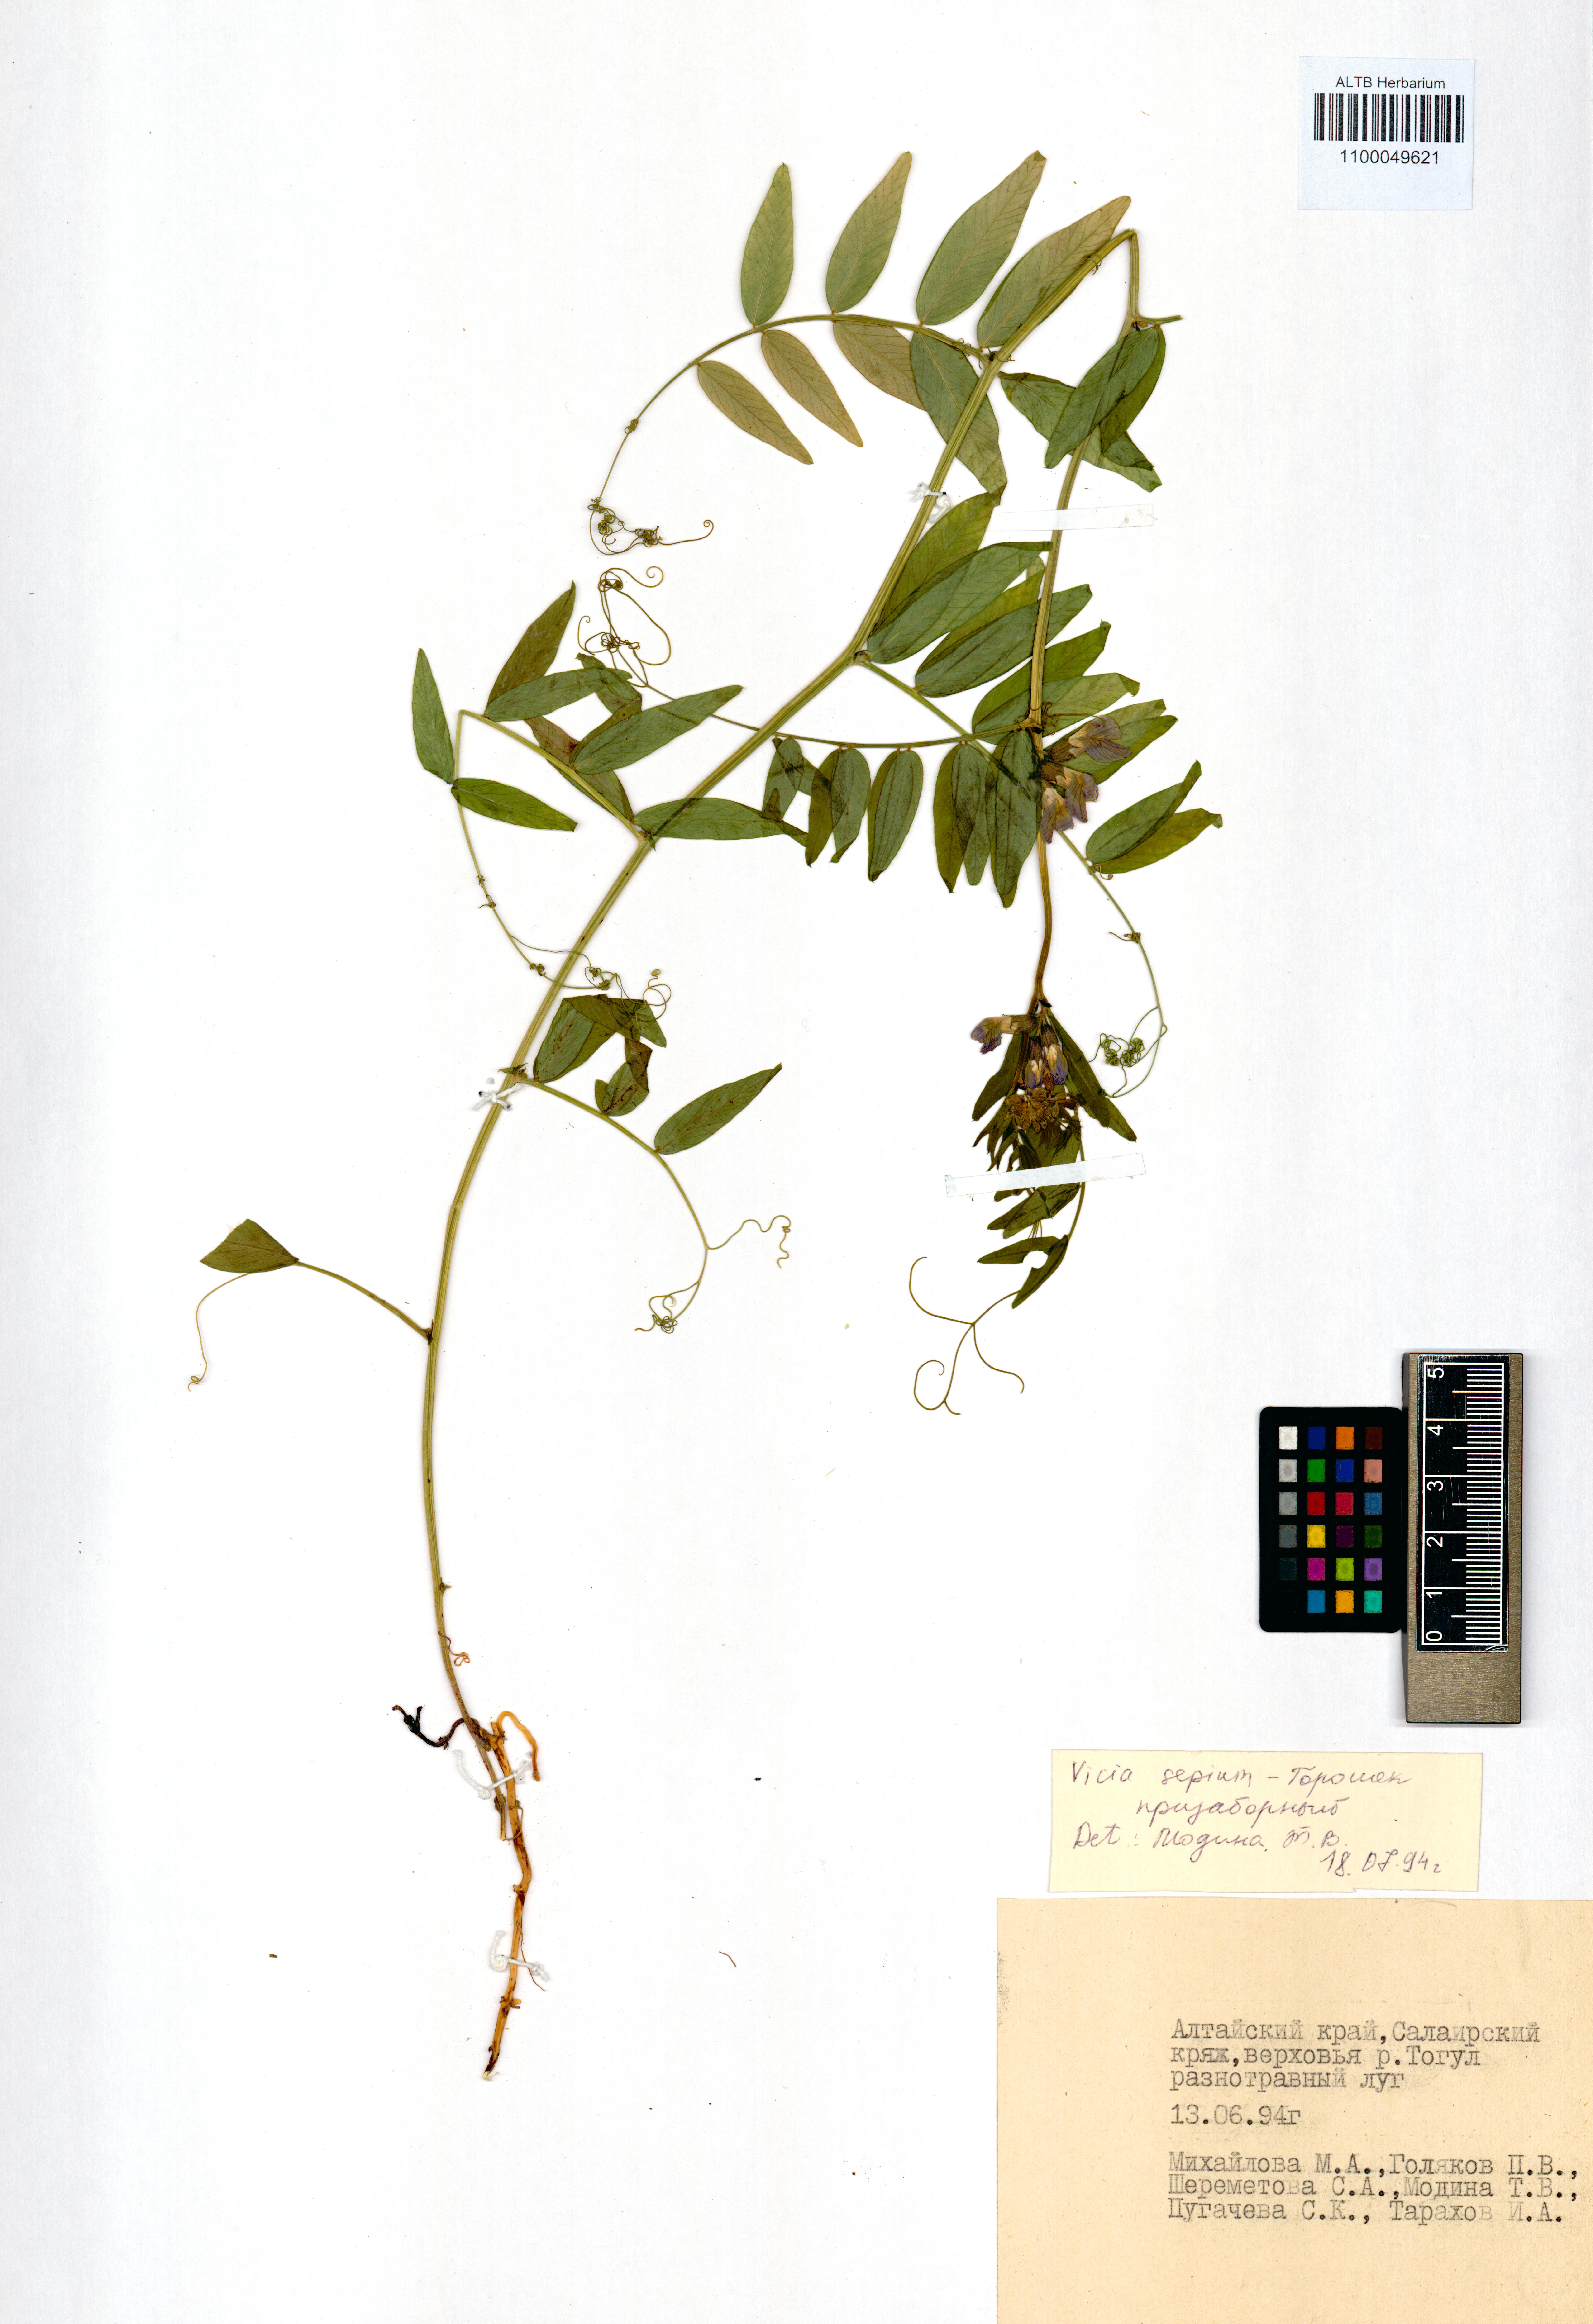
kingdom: Plantae
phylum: Tracheophyta
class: Magnoliopsida
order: Fabales
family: Fabaceae
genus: Vicia
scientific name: Vicia sepium
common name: Bush vetch
